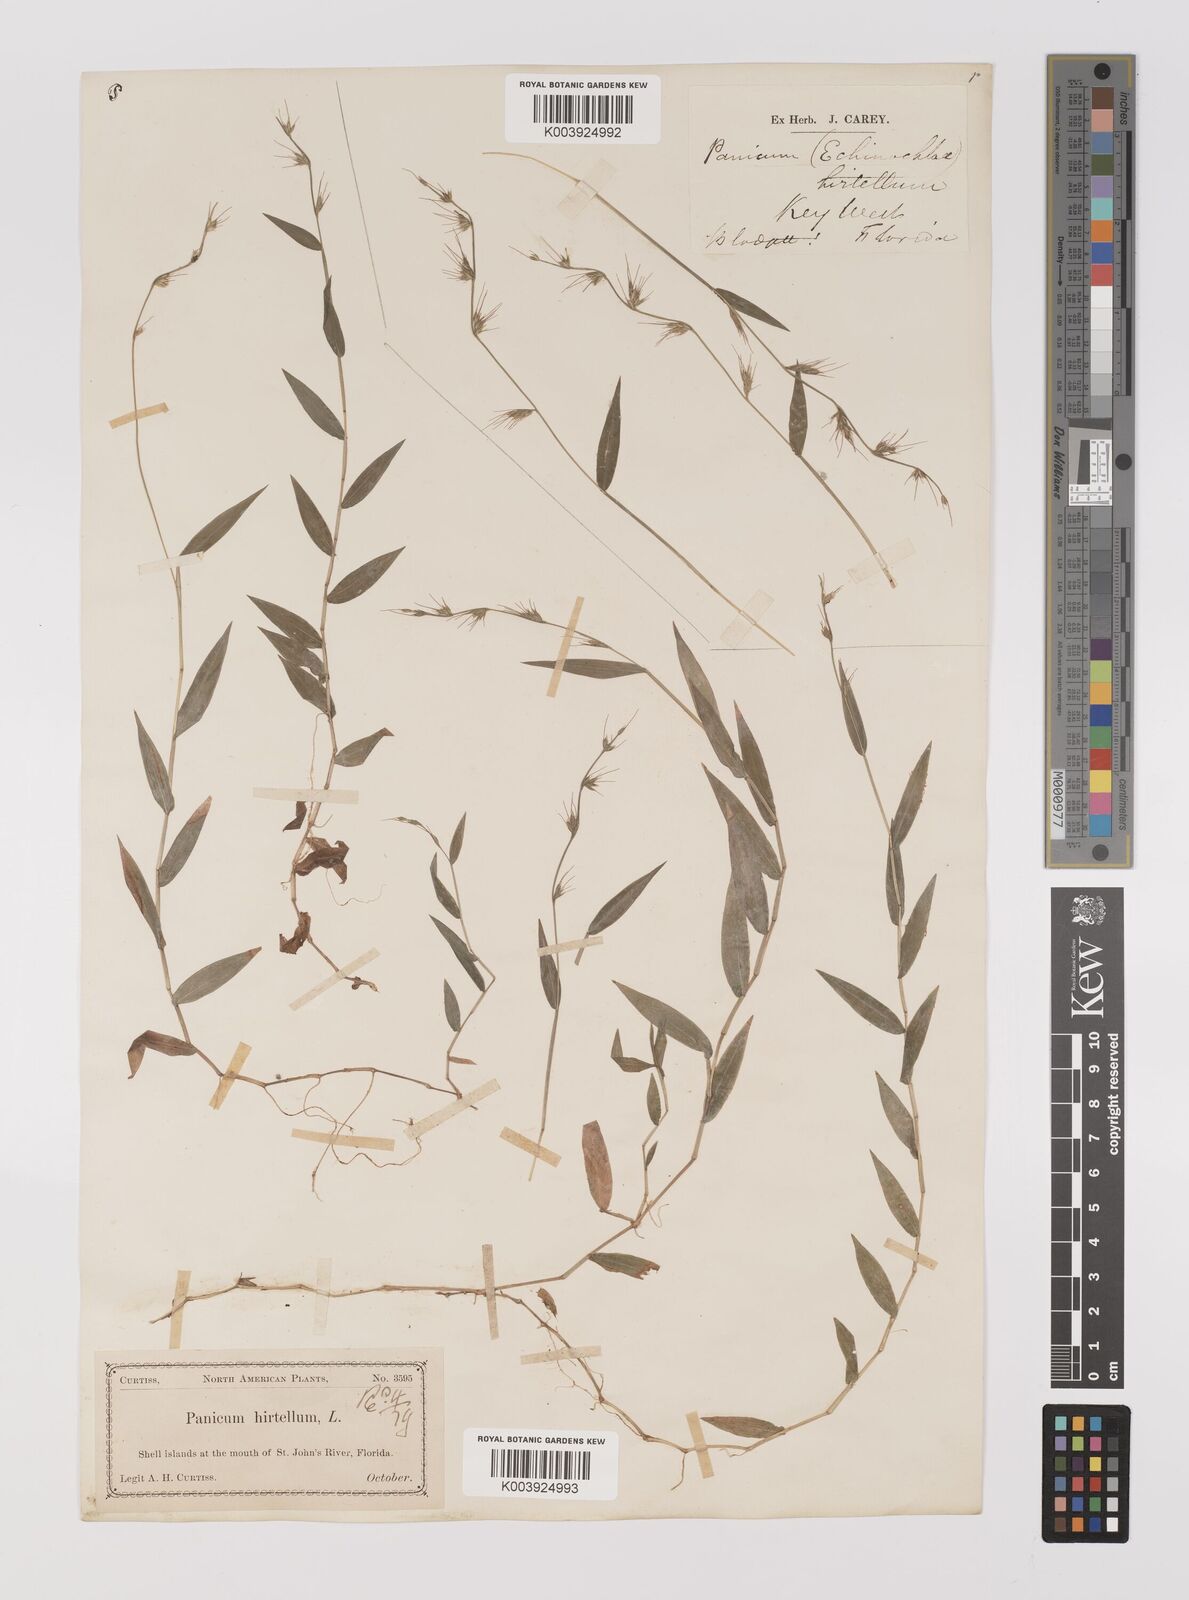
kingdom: Plantae
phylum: Tracheophyta
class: Liliopsida
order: Poales
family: Poaceae
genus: Oplismenus
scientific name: Oplismenus undulatifolius
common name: Wavyleaf basketgrass
